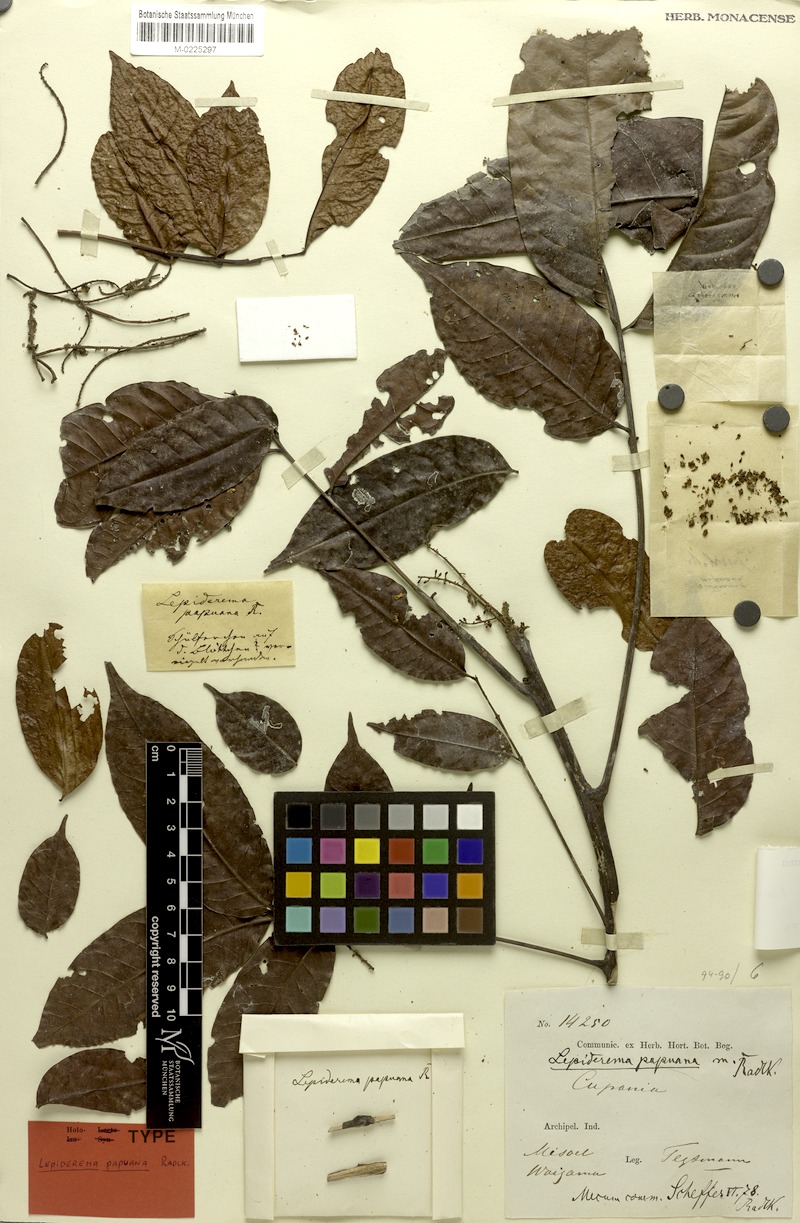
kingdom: Plantae
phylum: Tracheophyta
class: Magnoliopsida
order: Sapindales
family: Sapindaceae
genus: Lepiderema
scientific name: Lepiderema papuana
